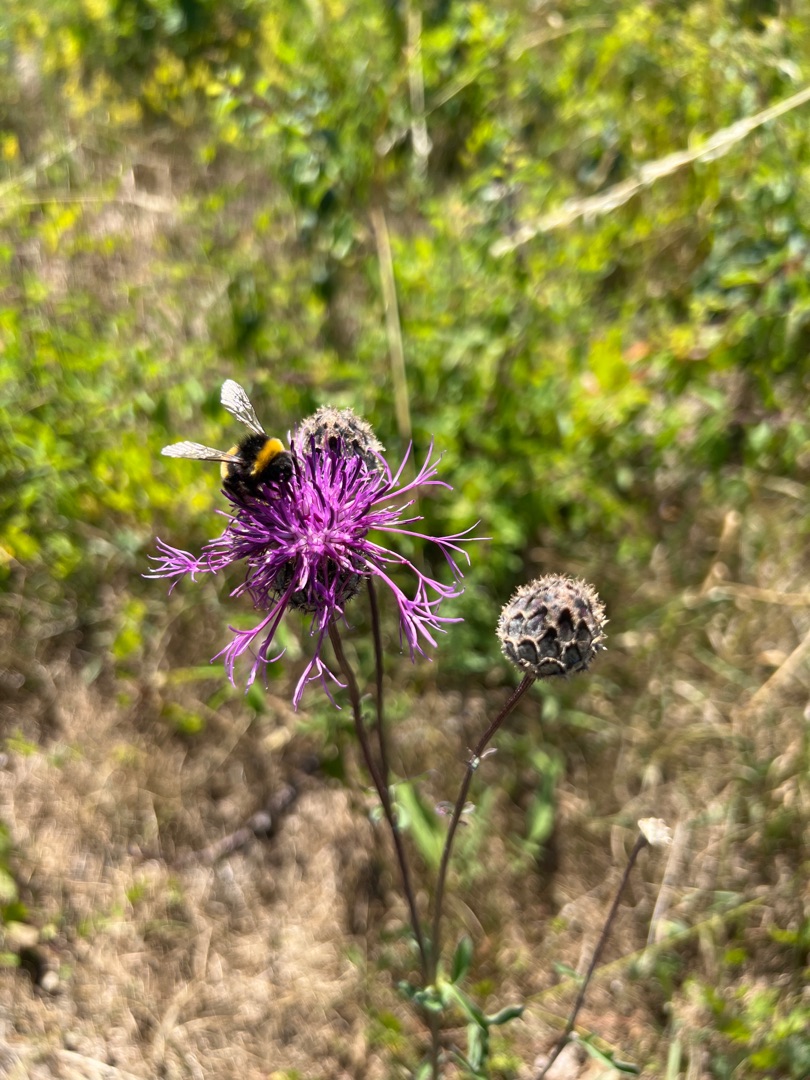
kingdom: Plantae
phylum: Tracheophyta
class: Magnoliopsida
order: Asterales
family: Asteraceae
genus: Centaurea
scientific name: Centaurea scabiosa
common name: Stor knopurt
